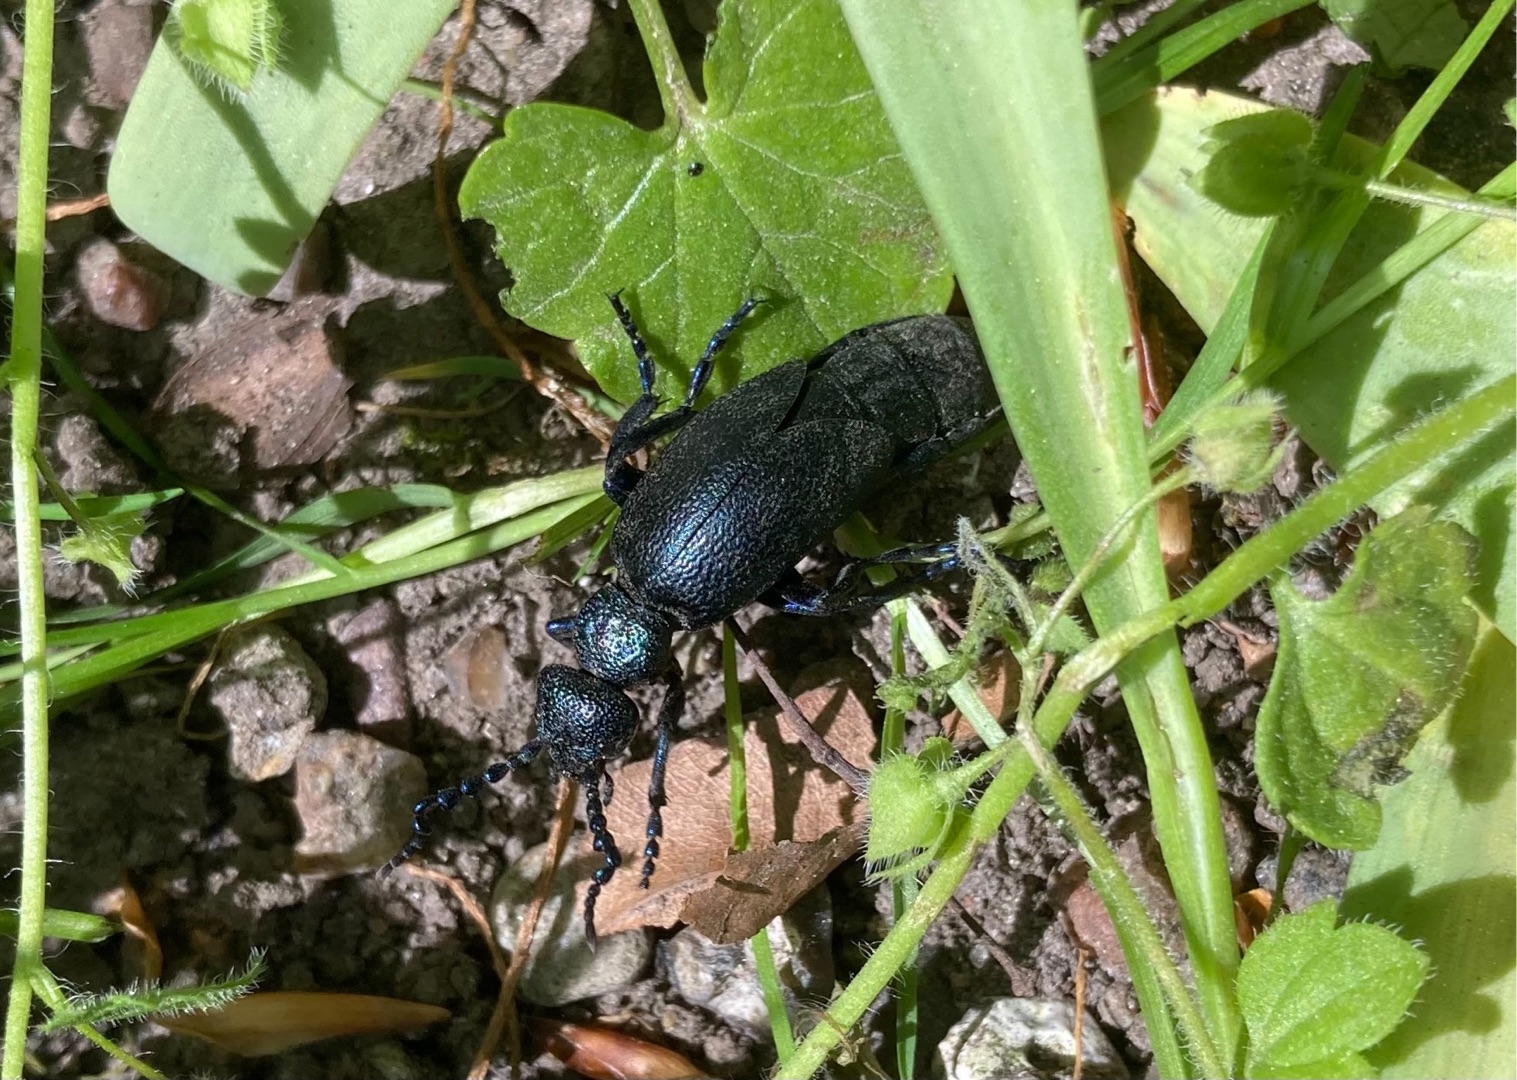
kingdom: Animalia
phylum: Arthropoda
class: Insecta
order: Coleoptera
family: Meloidae
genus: Meloe
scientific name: Meloe proscarabaeus
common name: Sort oliebille
